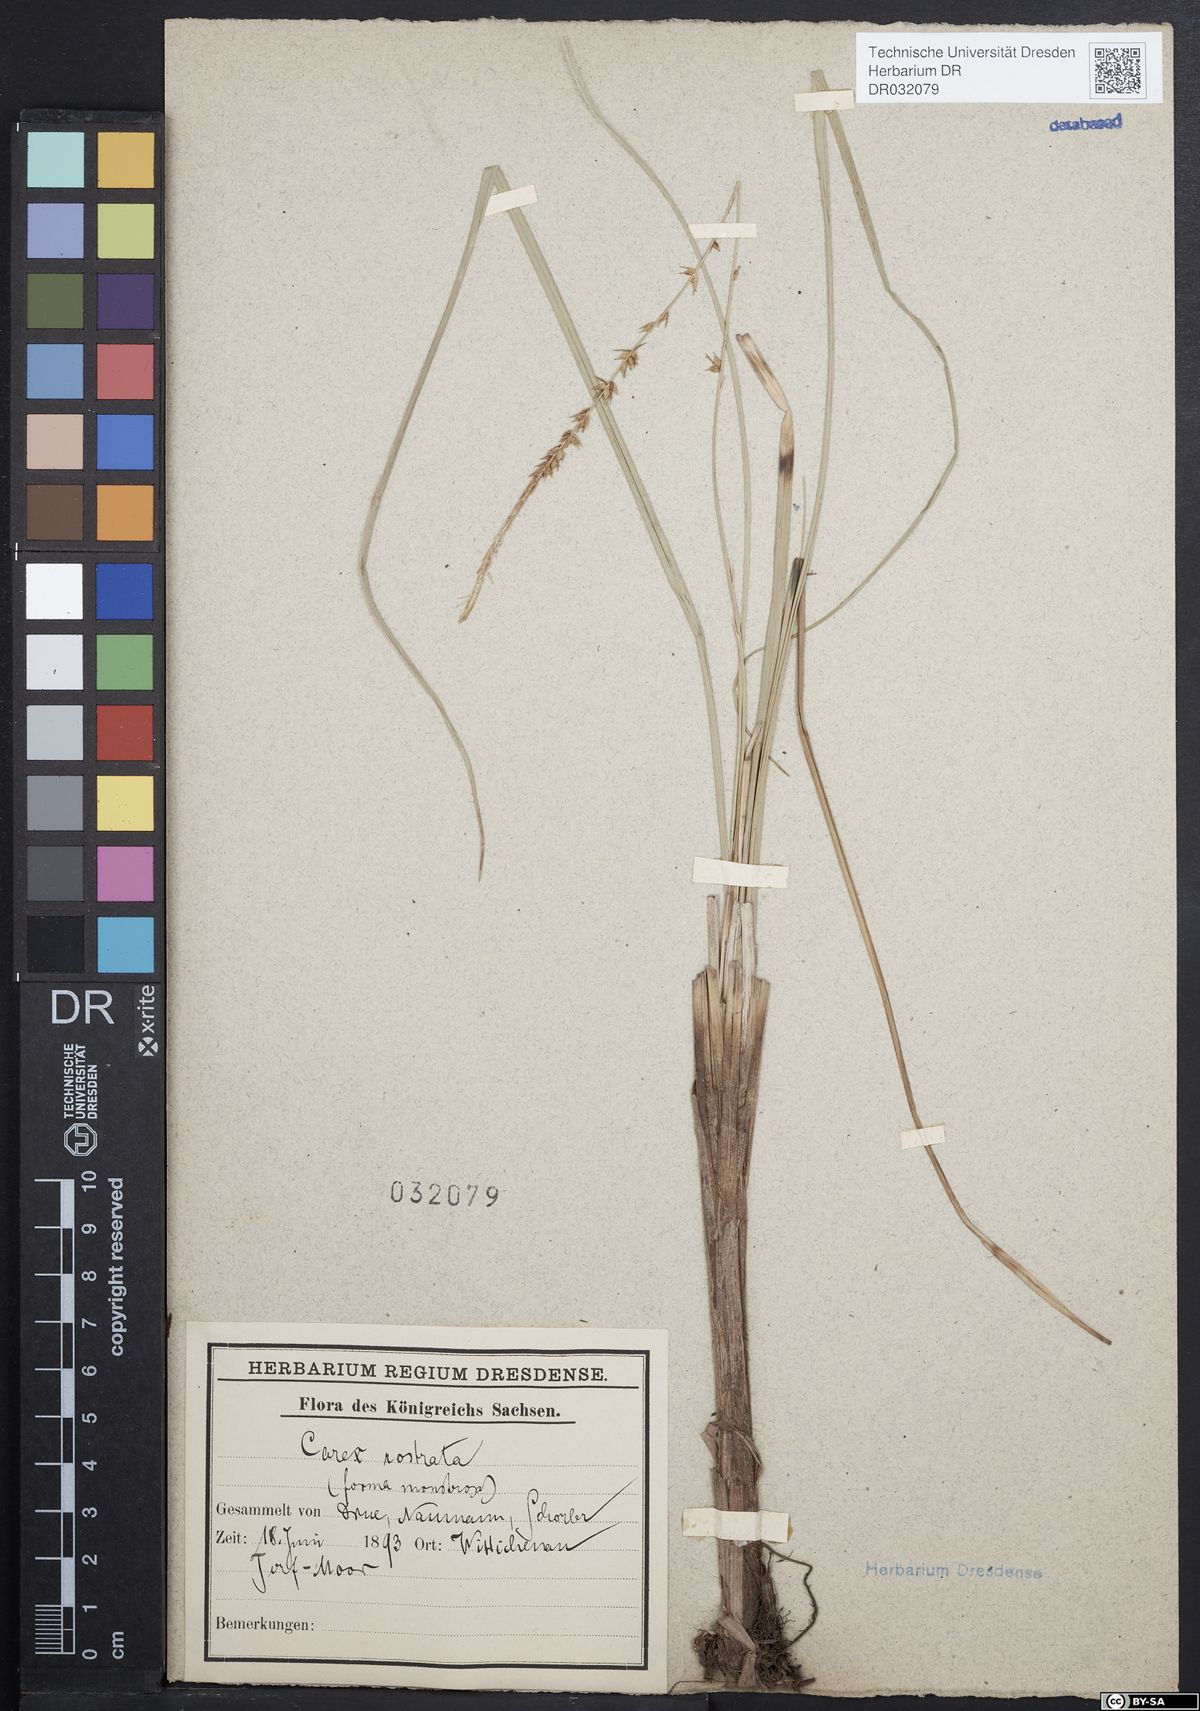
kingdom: Plantae
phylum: Tracheophyta
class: Liliopsida
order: Poales
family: Cyperaceae
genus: Carex
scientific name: Carex rostrata
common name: Bottle sedge
